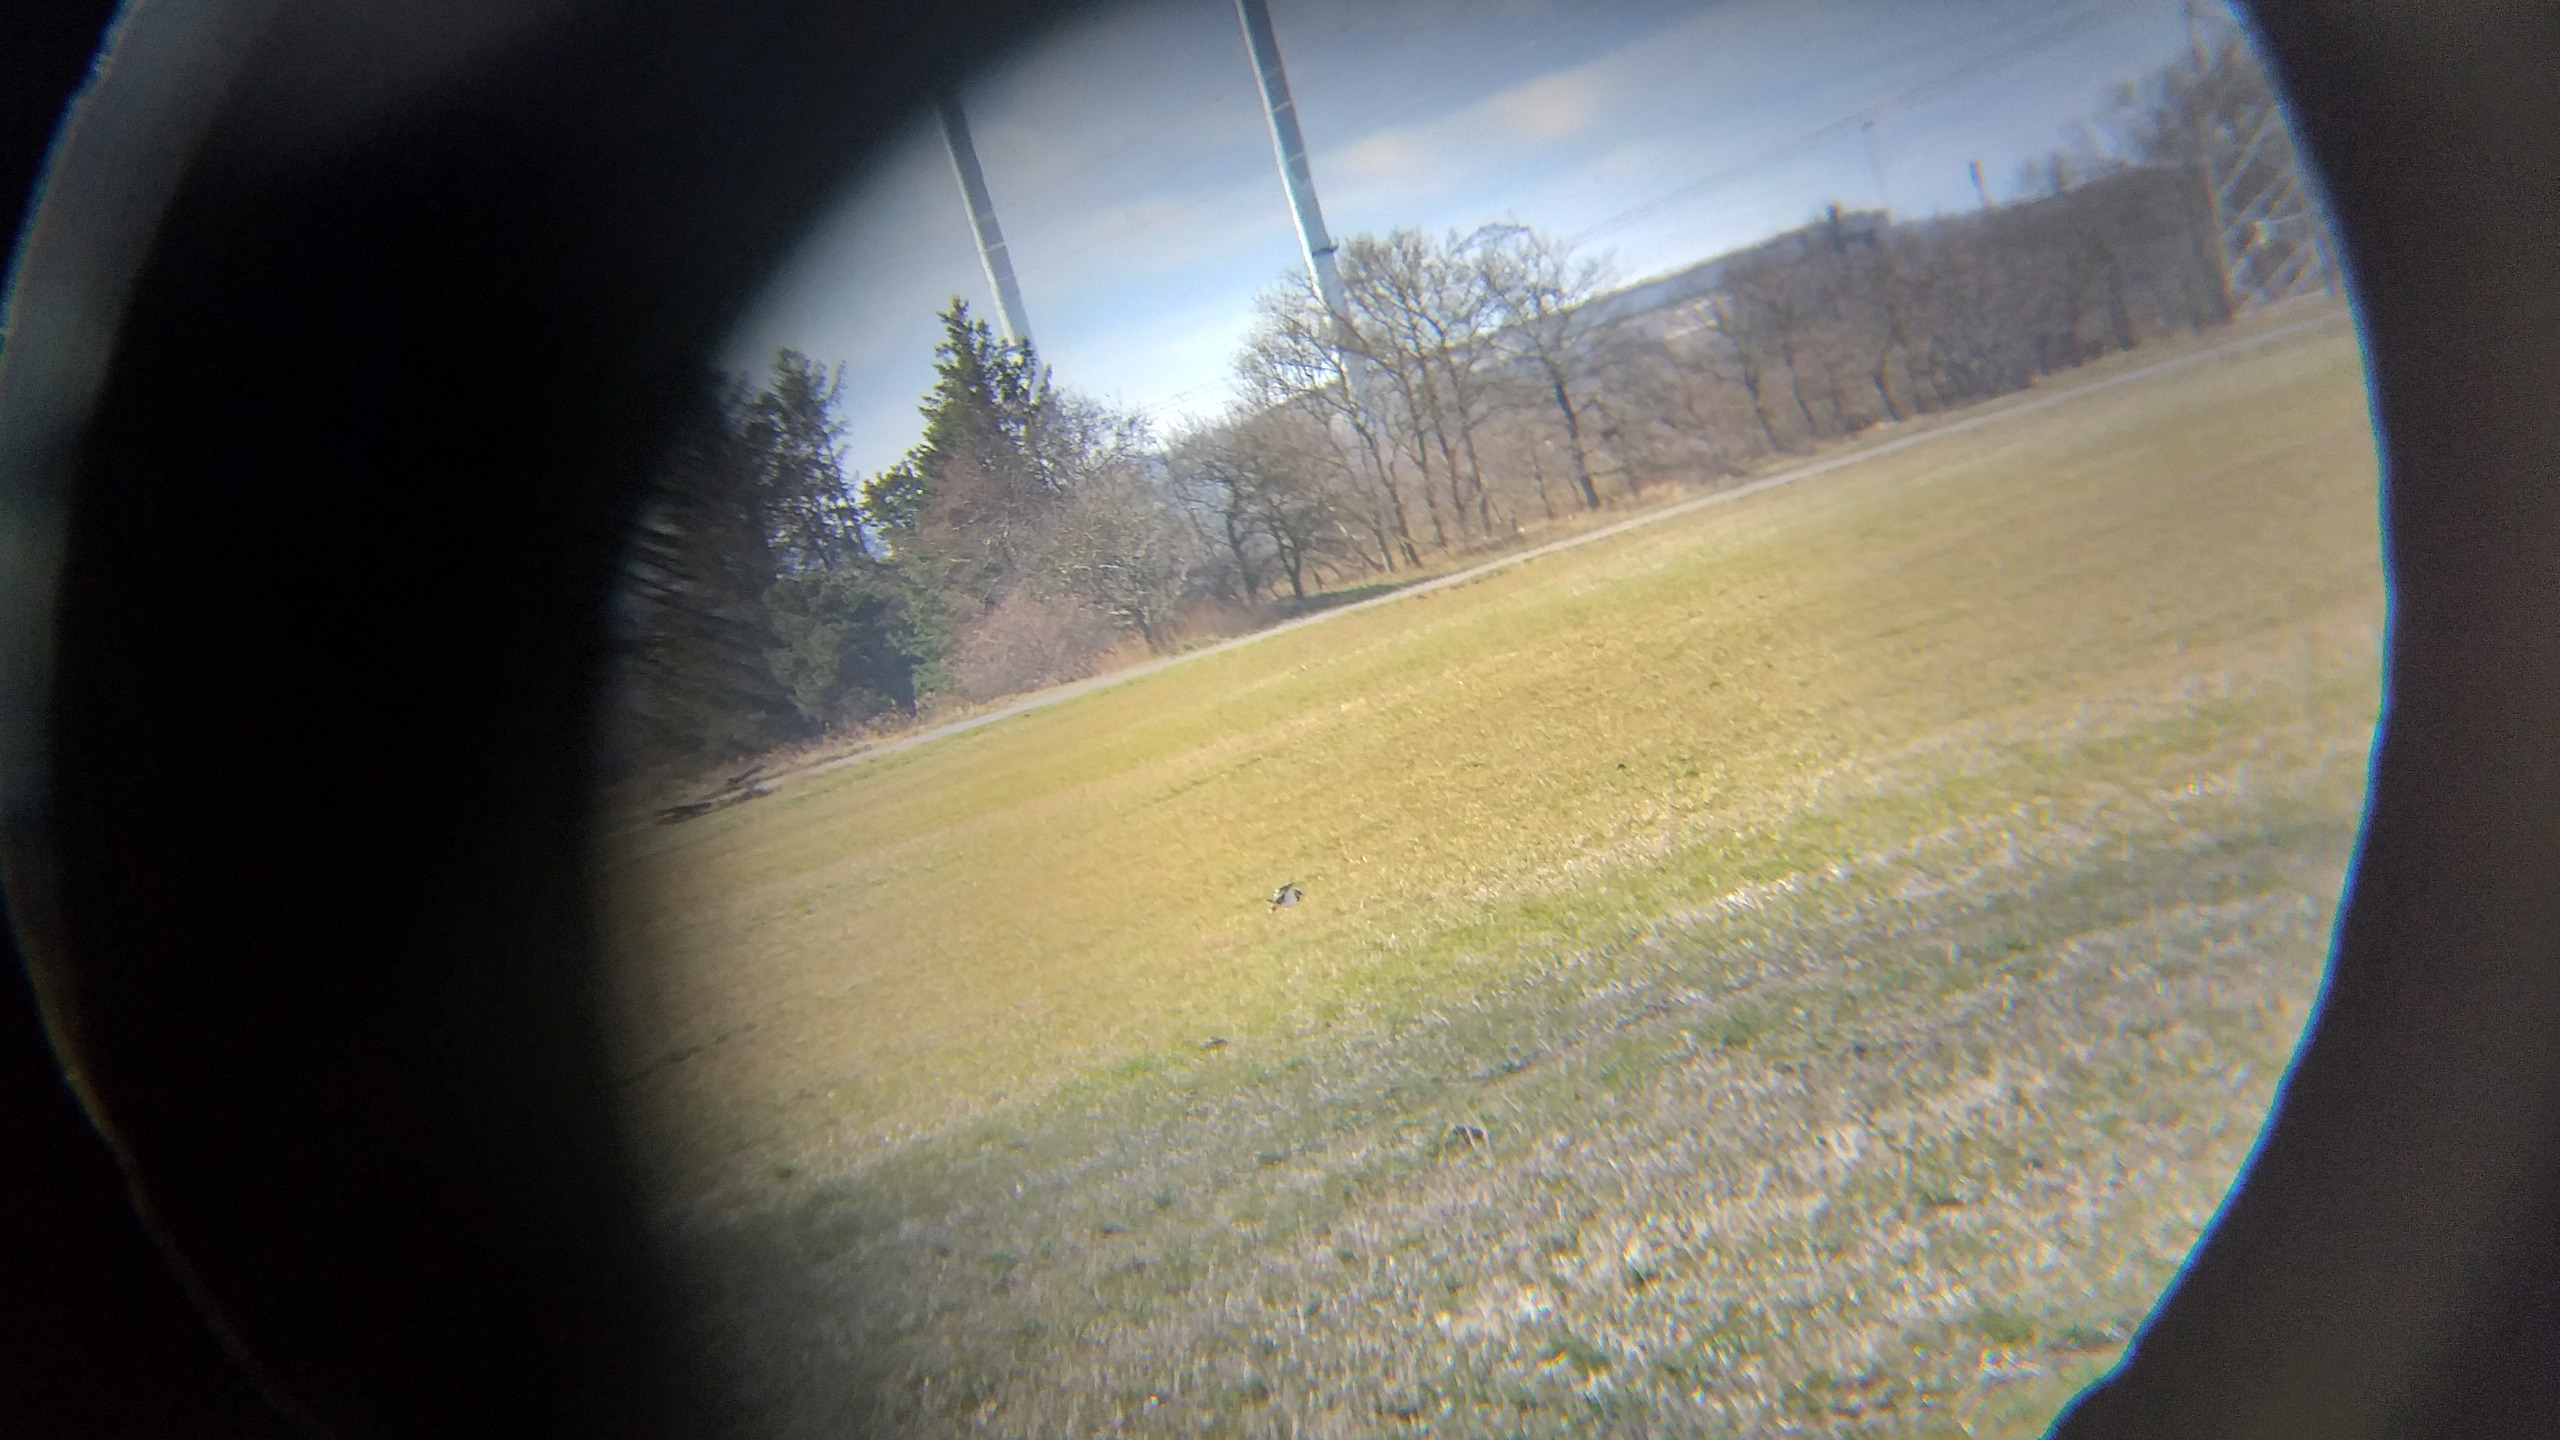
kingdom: Animalia
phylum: Chordata
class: Aves
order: Charadriiformes
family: Charadriidae
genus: Vanellus
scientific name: Vanellus vanellus
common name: Vibe
